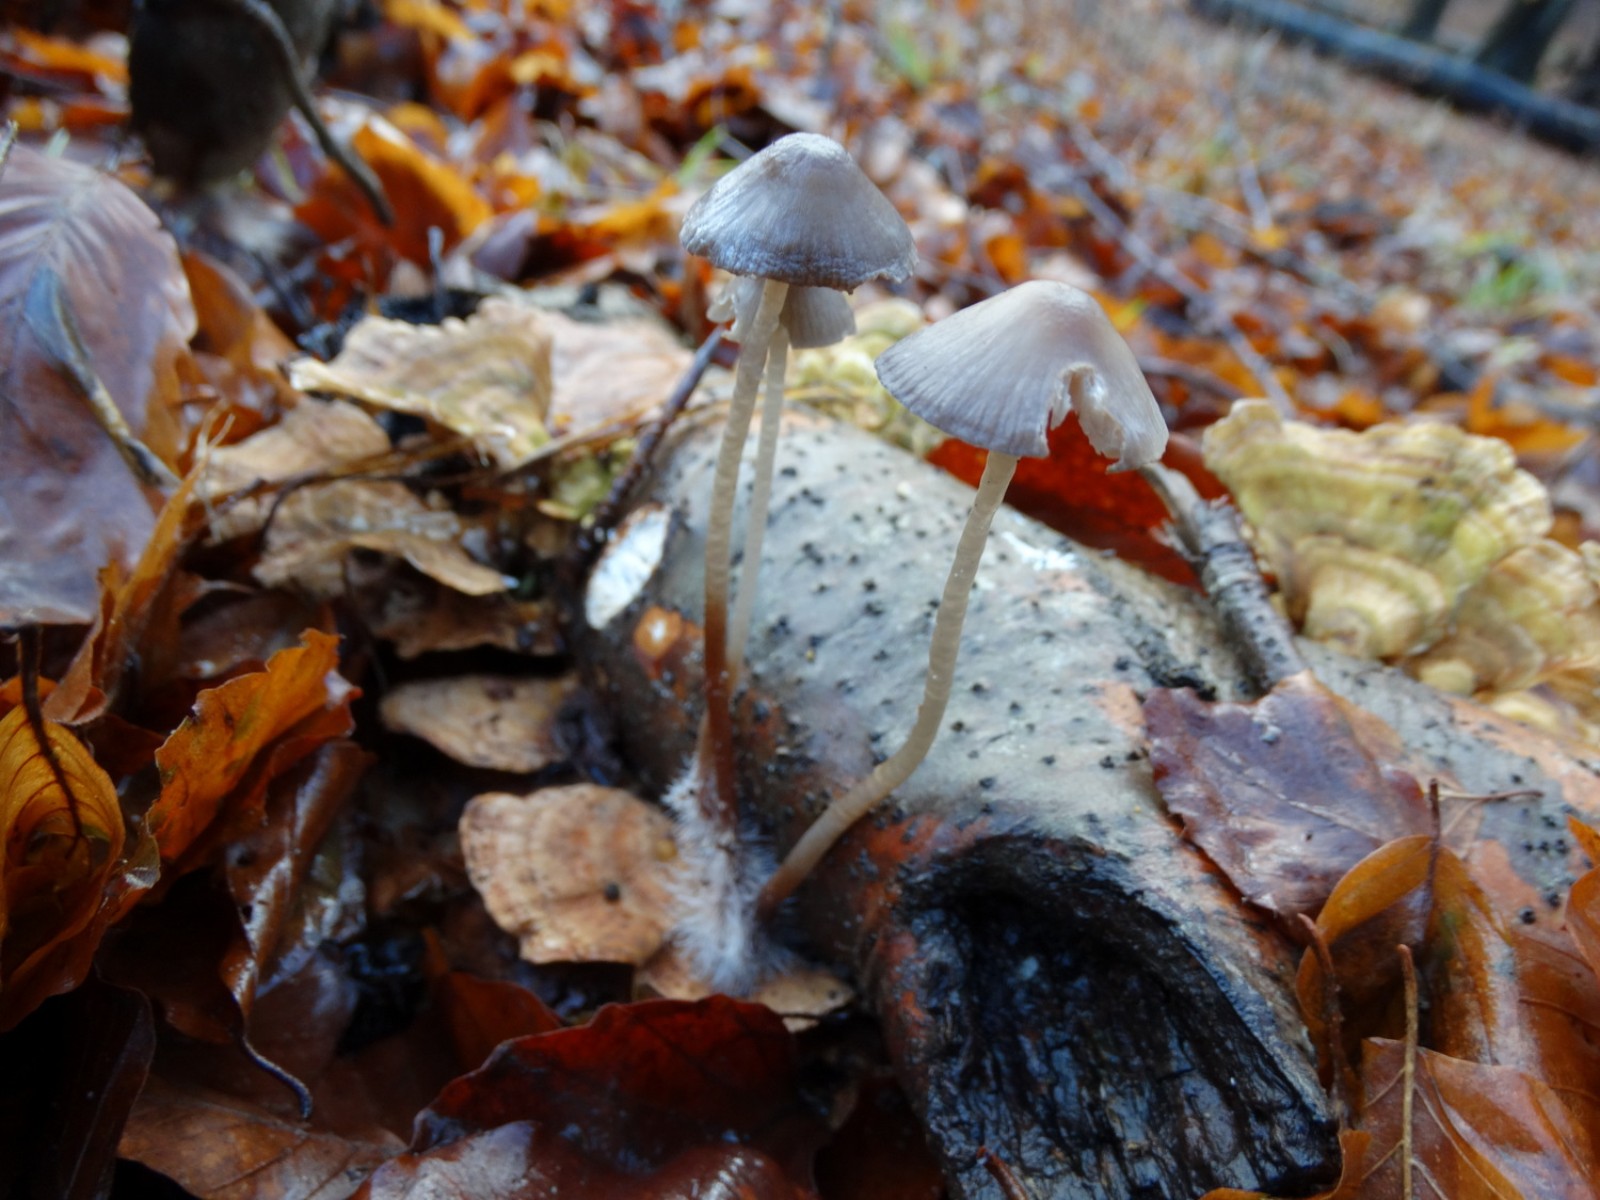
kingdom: Fungi
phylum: Basidiomycota
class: Agaricomycetes
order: Agaricales
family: Mycenaceae
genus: Mycena
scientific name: Mycena haematopus
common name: blødende huesvamp
